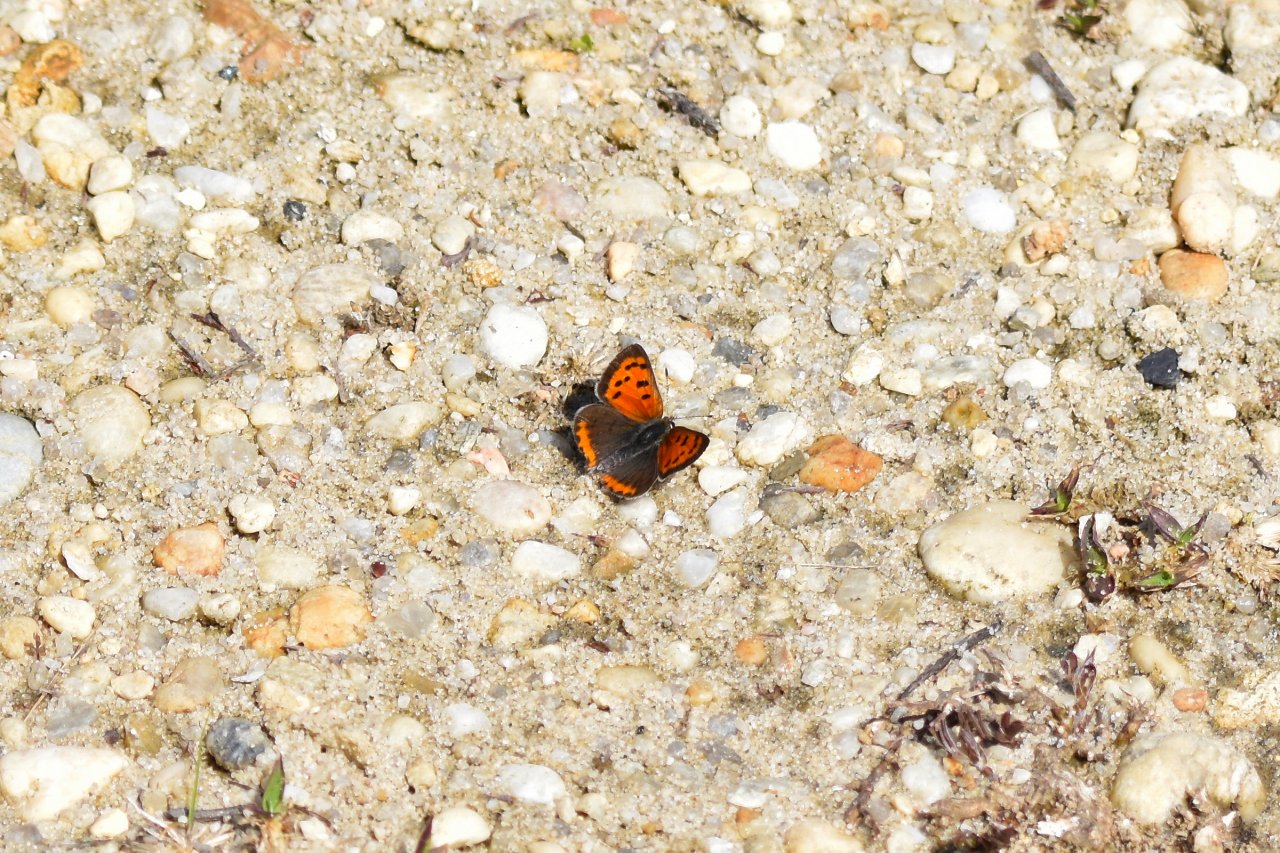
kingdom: Animalia
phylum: Arthropoda
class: Insecta
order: Lepidoptera
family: Lycaenidae
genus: Lycaena
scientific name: Lycaena phlaeas
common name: American Copper
